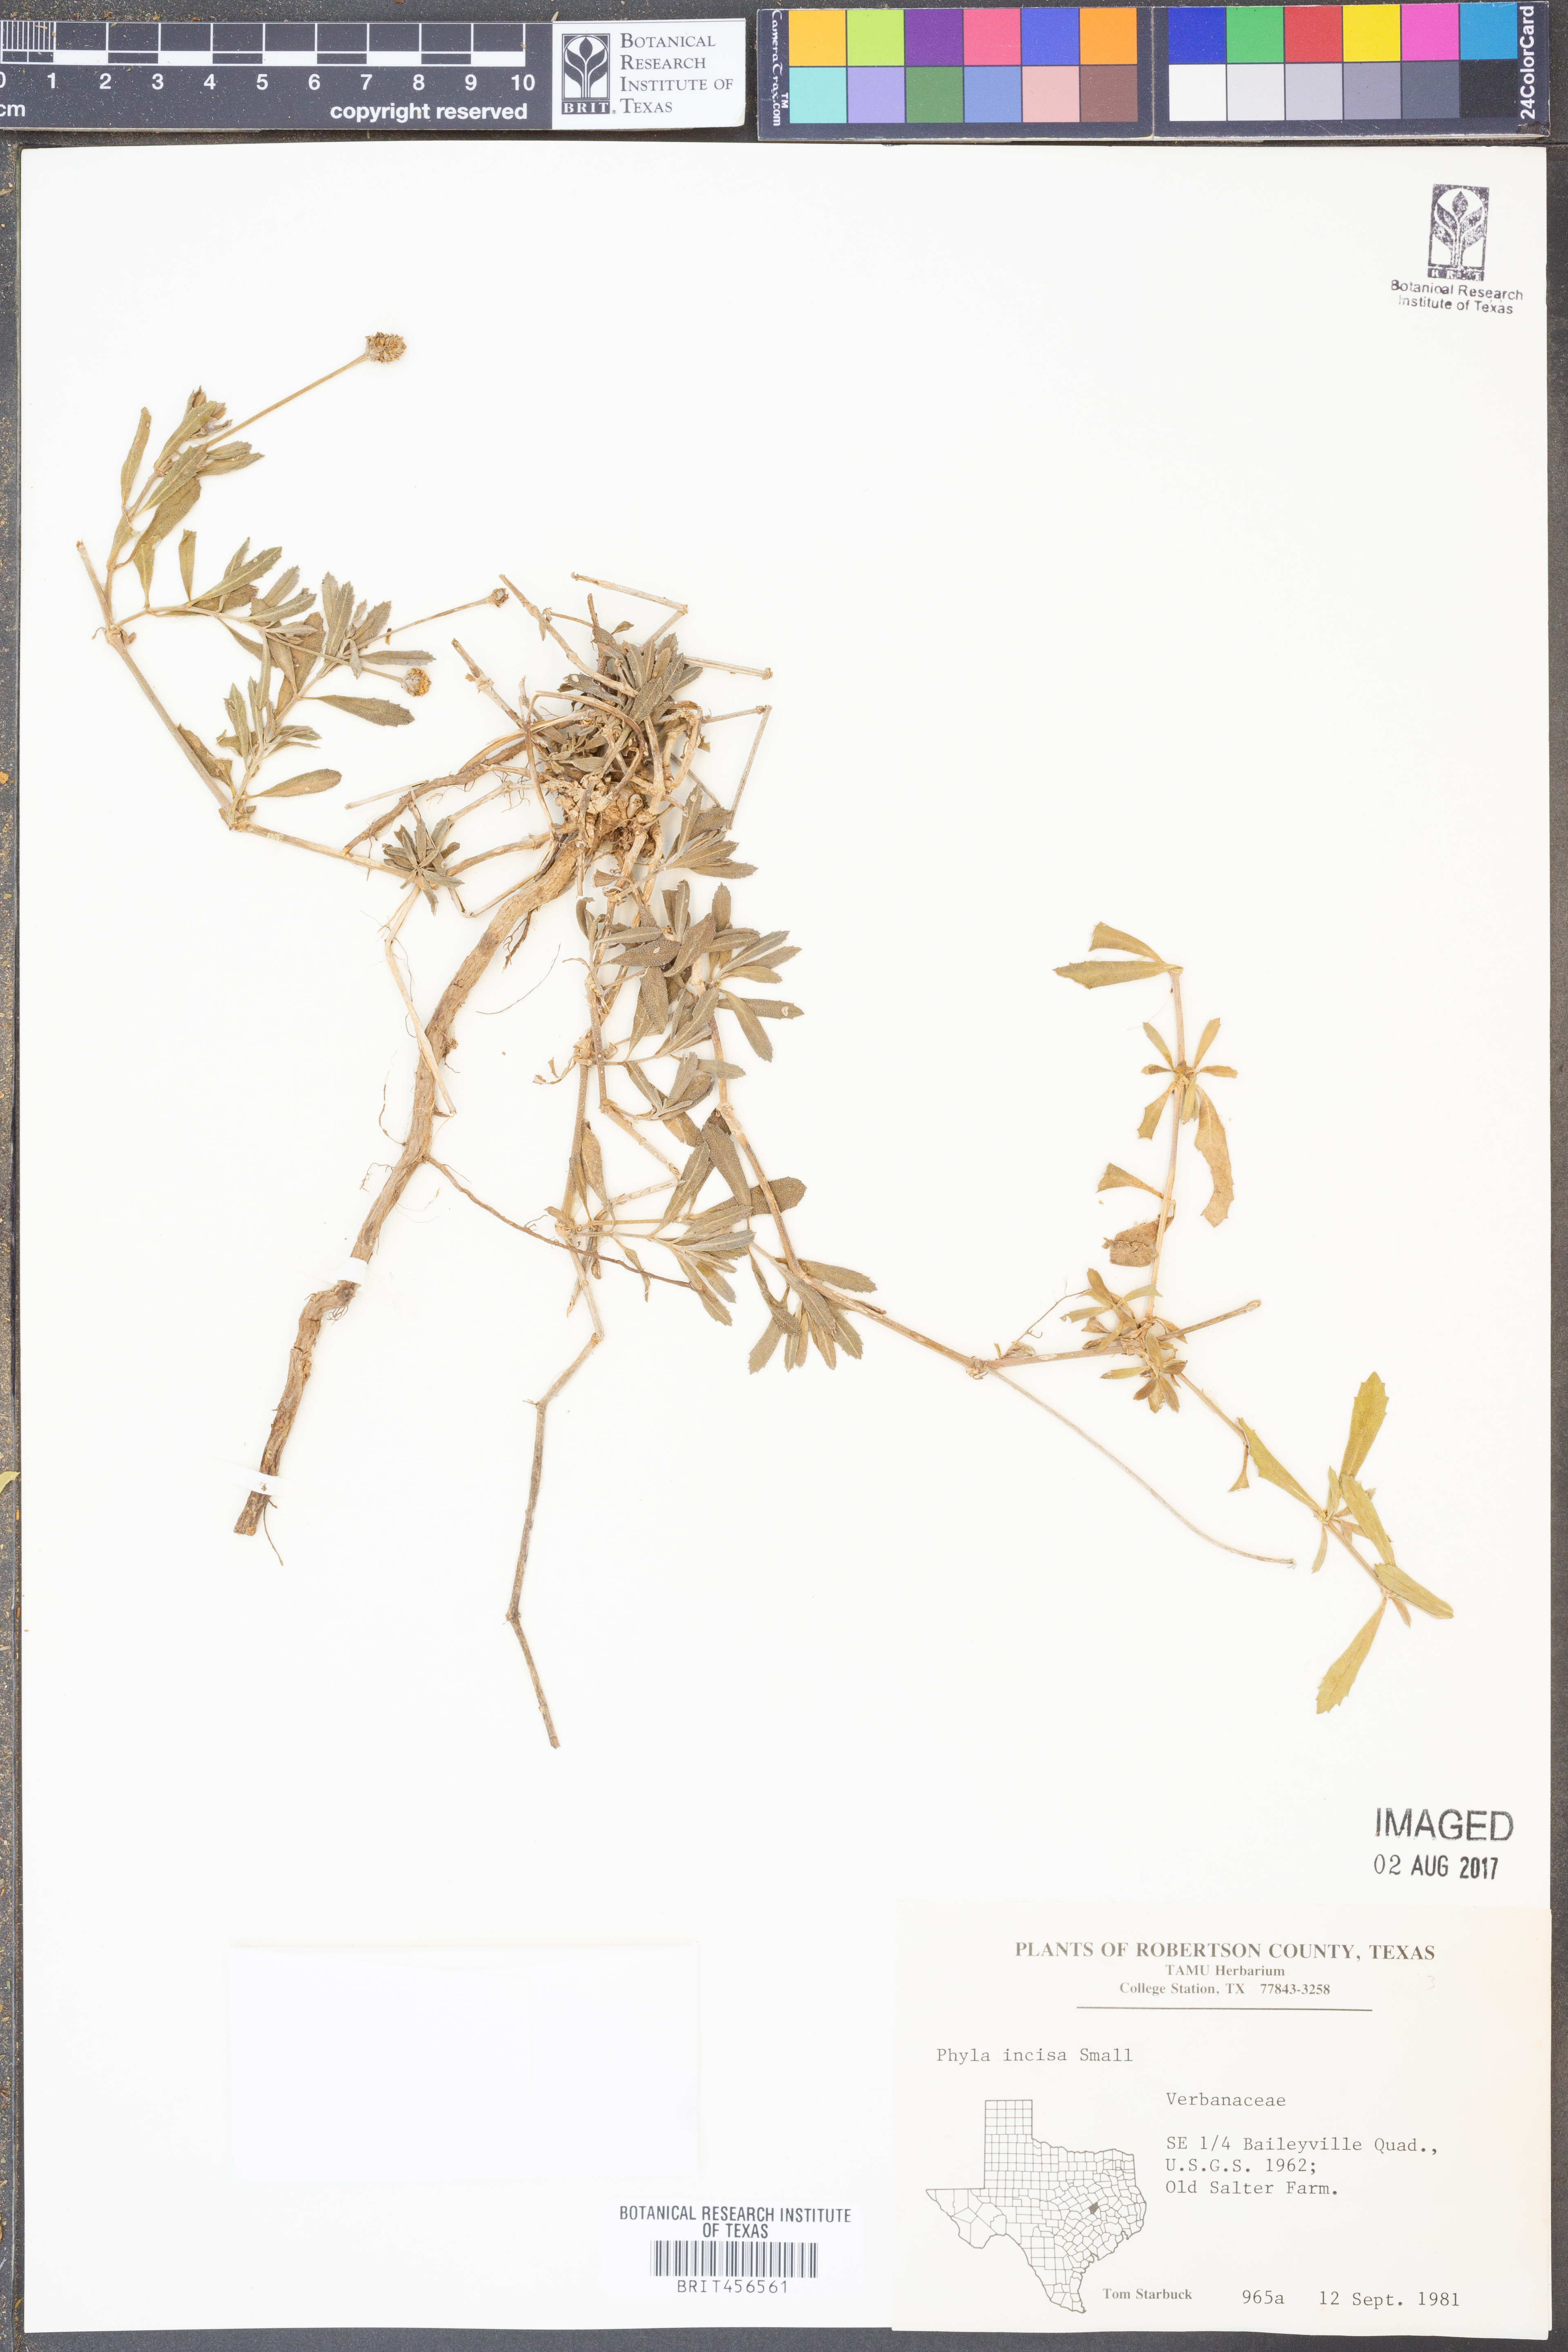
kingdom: Plantae
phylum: Tracheophyta
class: Magnoliopsida
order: Lamiales
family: Verbenaceae
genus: Phyla
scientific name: Phyla nodiflora
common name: Frogfruit
